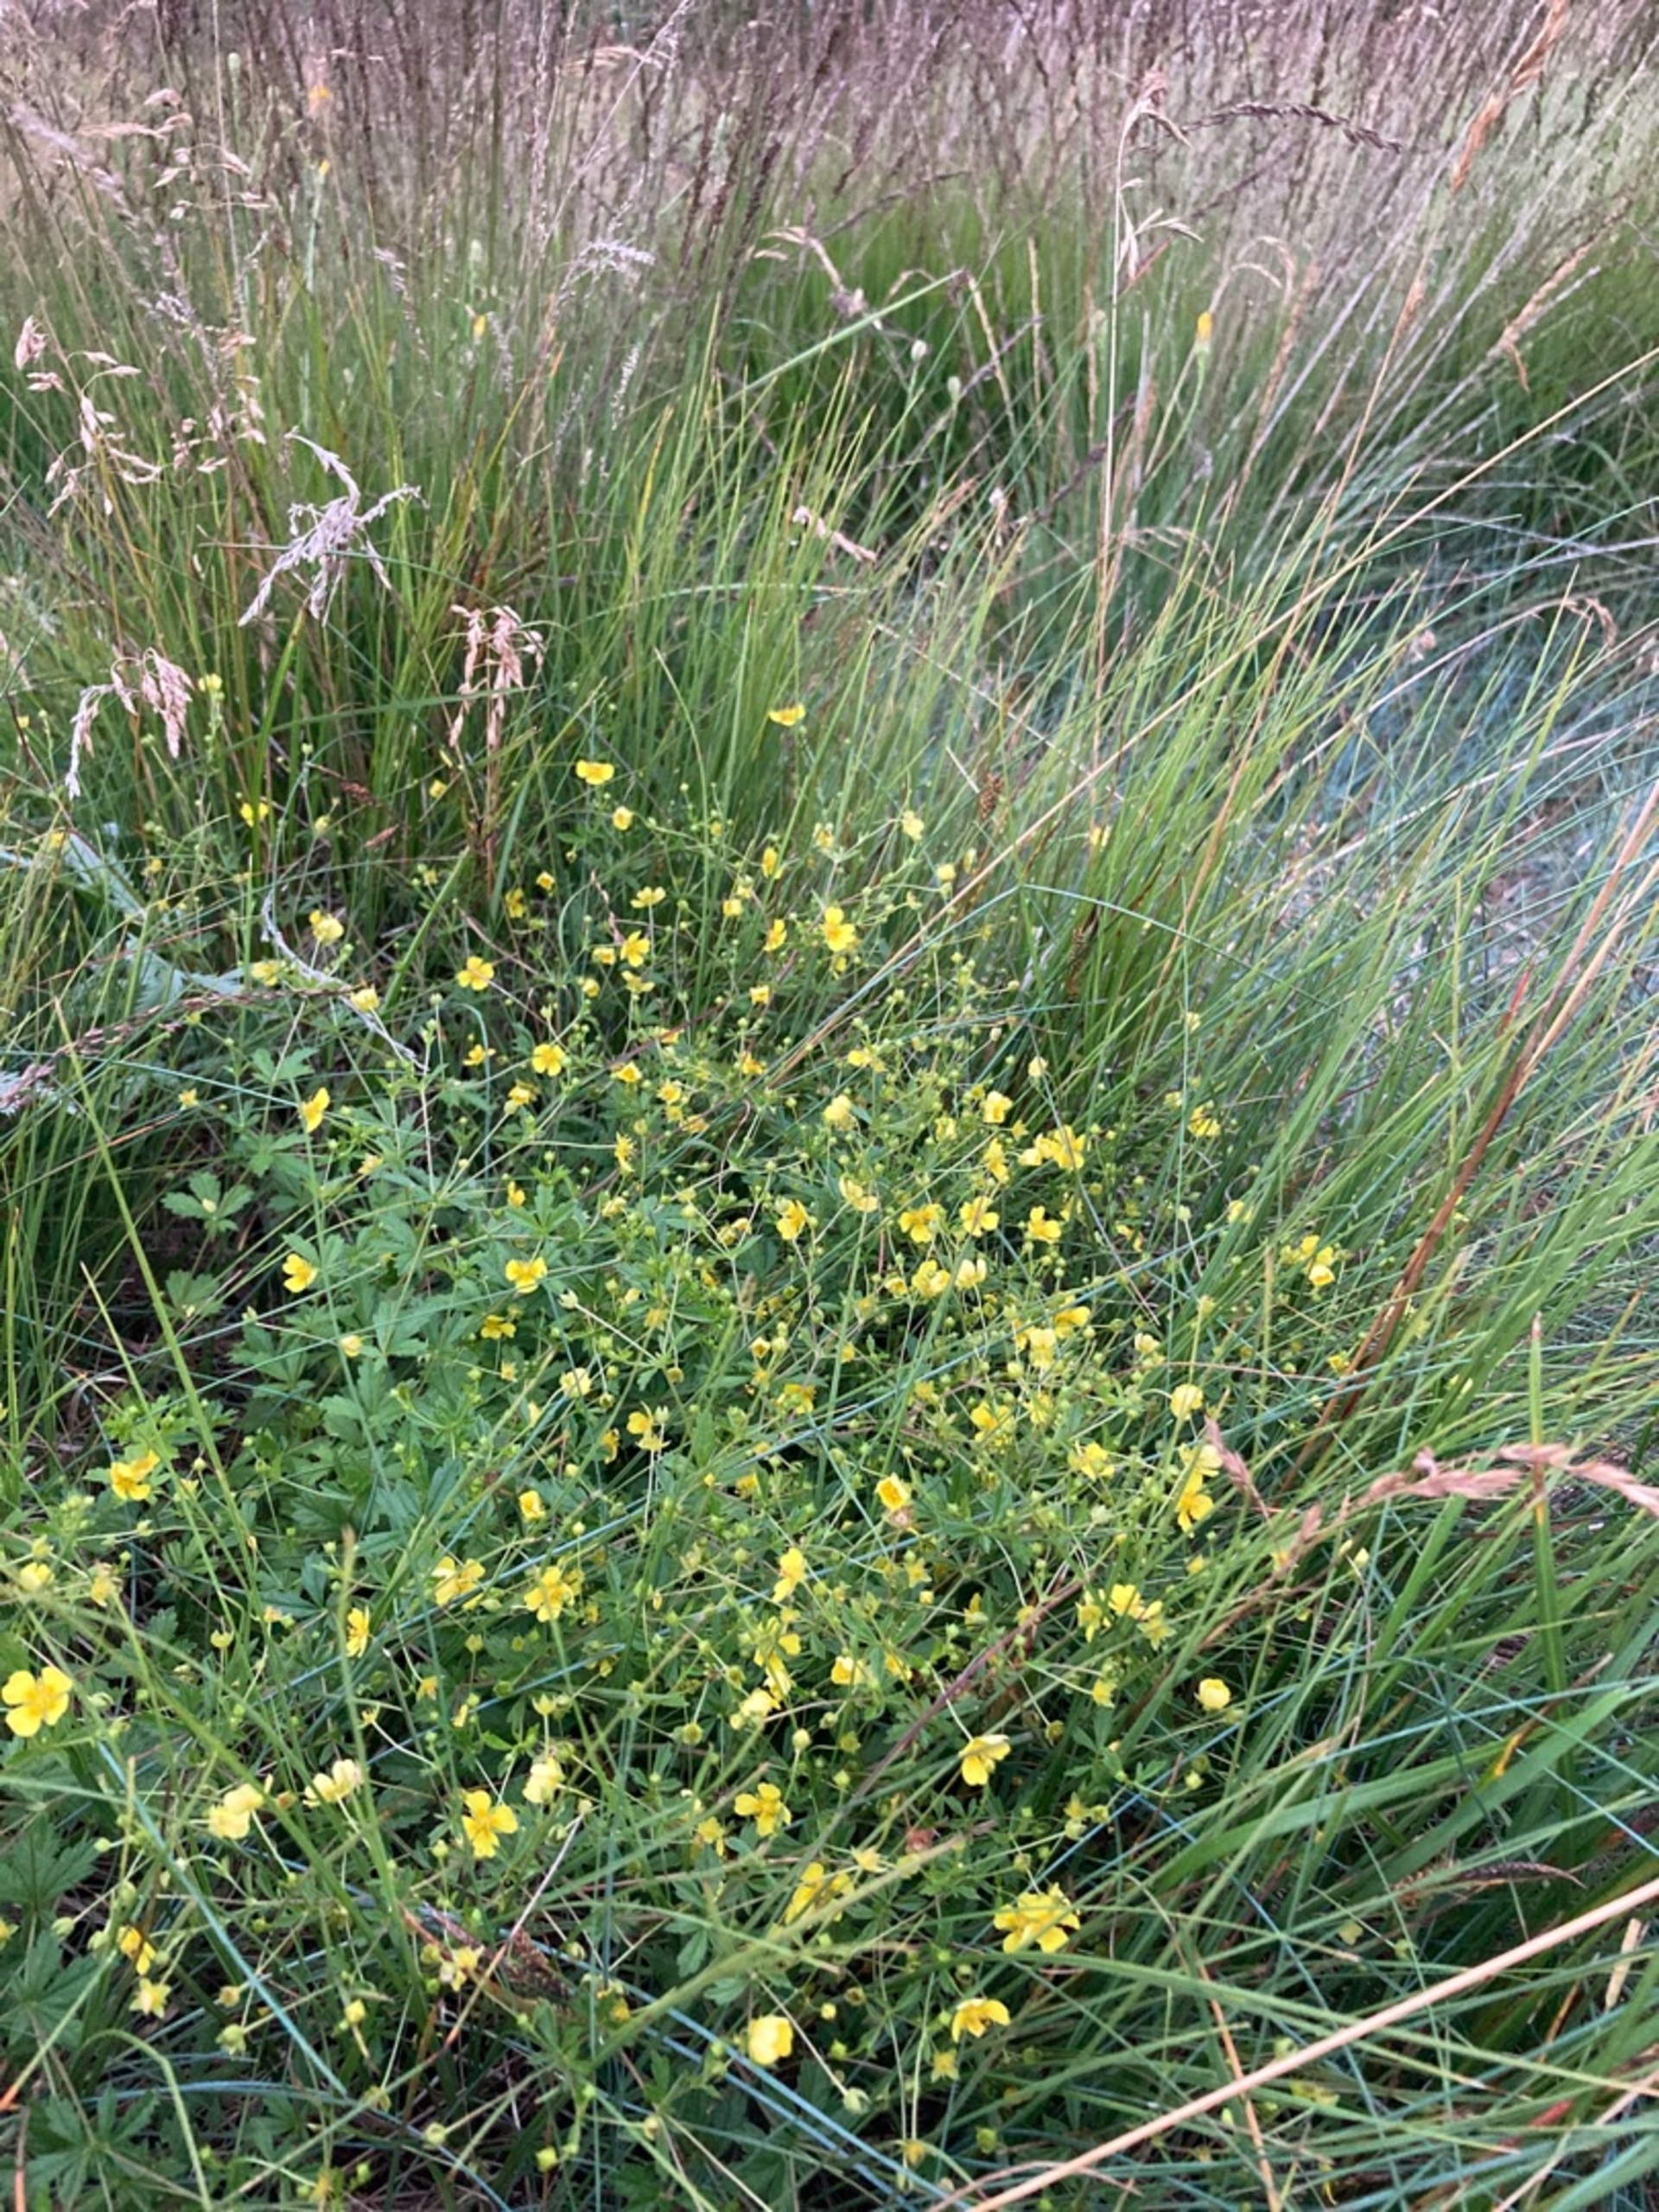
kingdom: Plantae
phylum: Tracheophyta
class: Magnoliopsida
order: Rosales
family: Rosaceae
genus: Potentilla
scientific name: Potentilla erecta
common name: Tormentil
